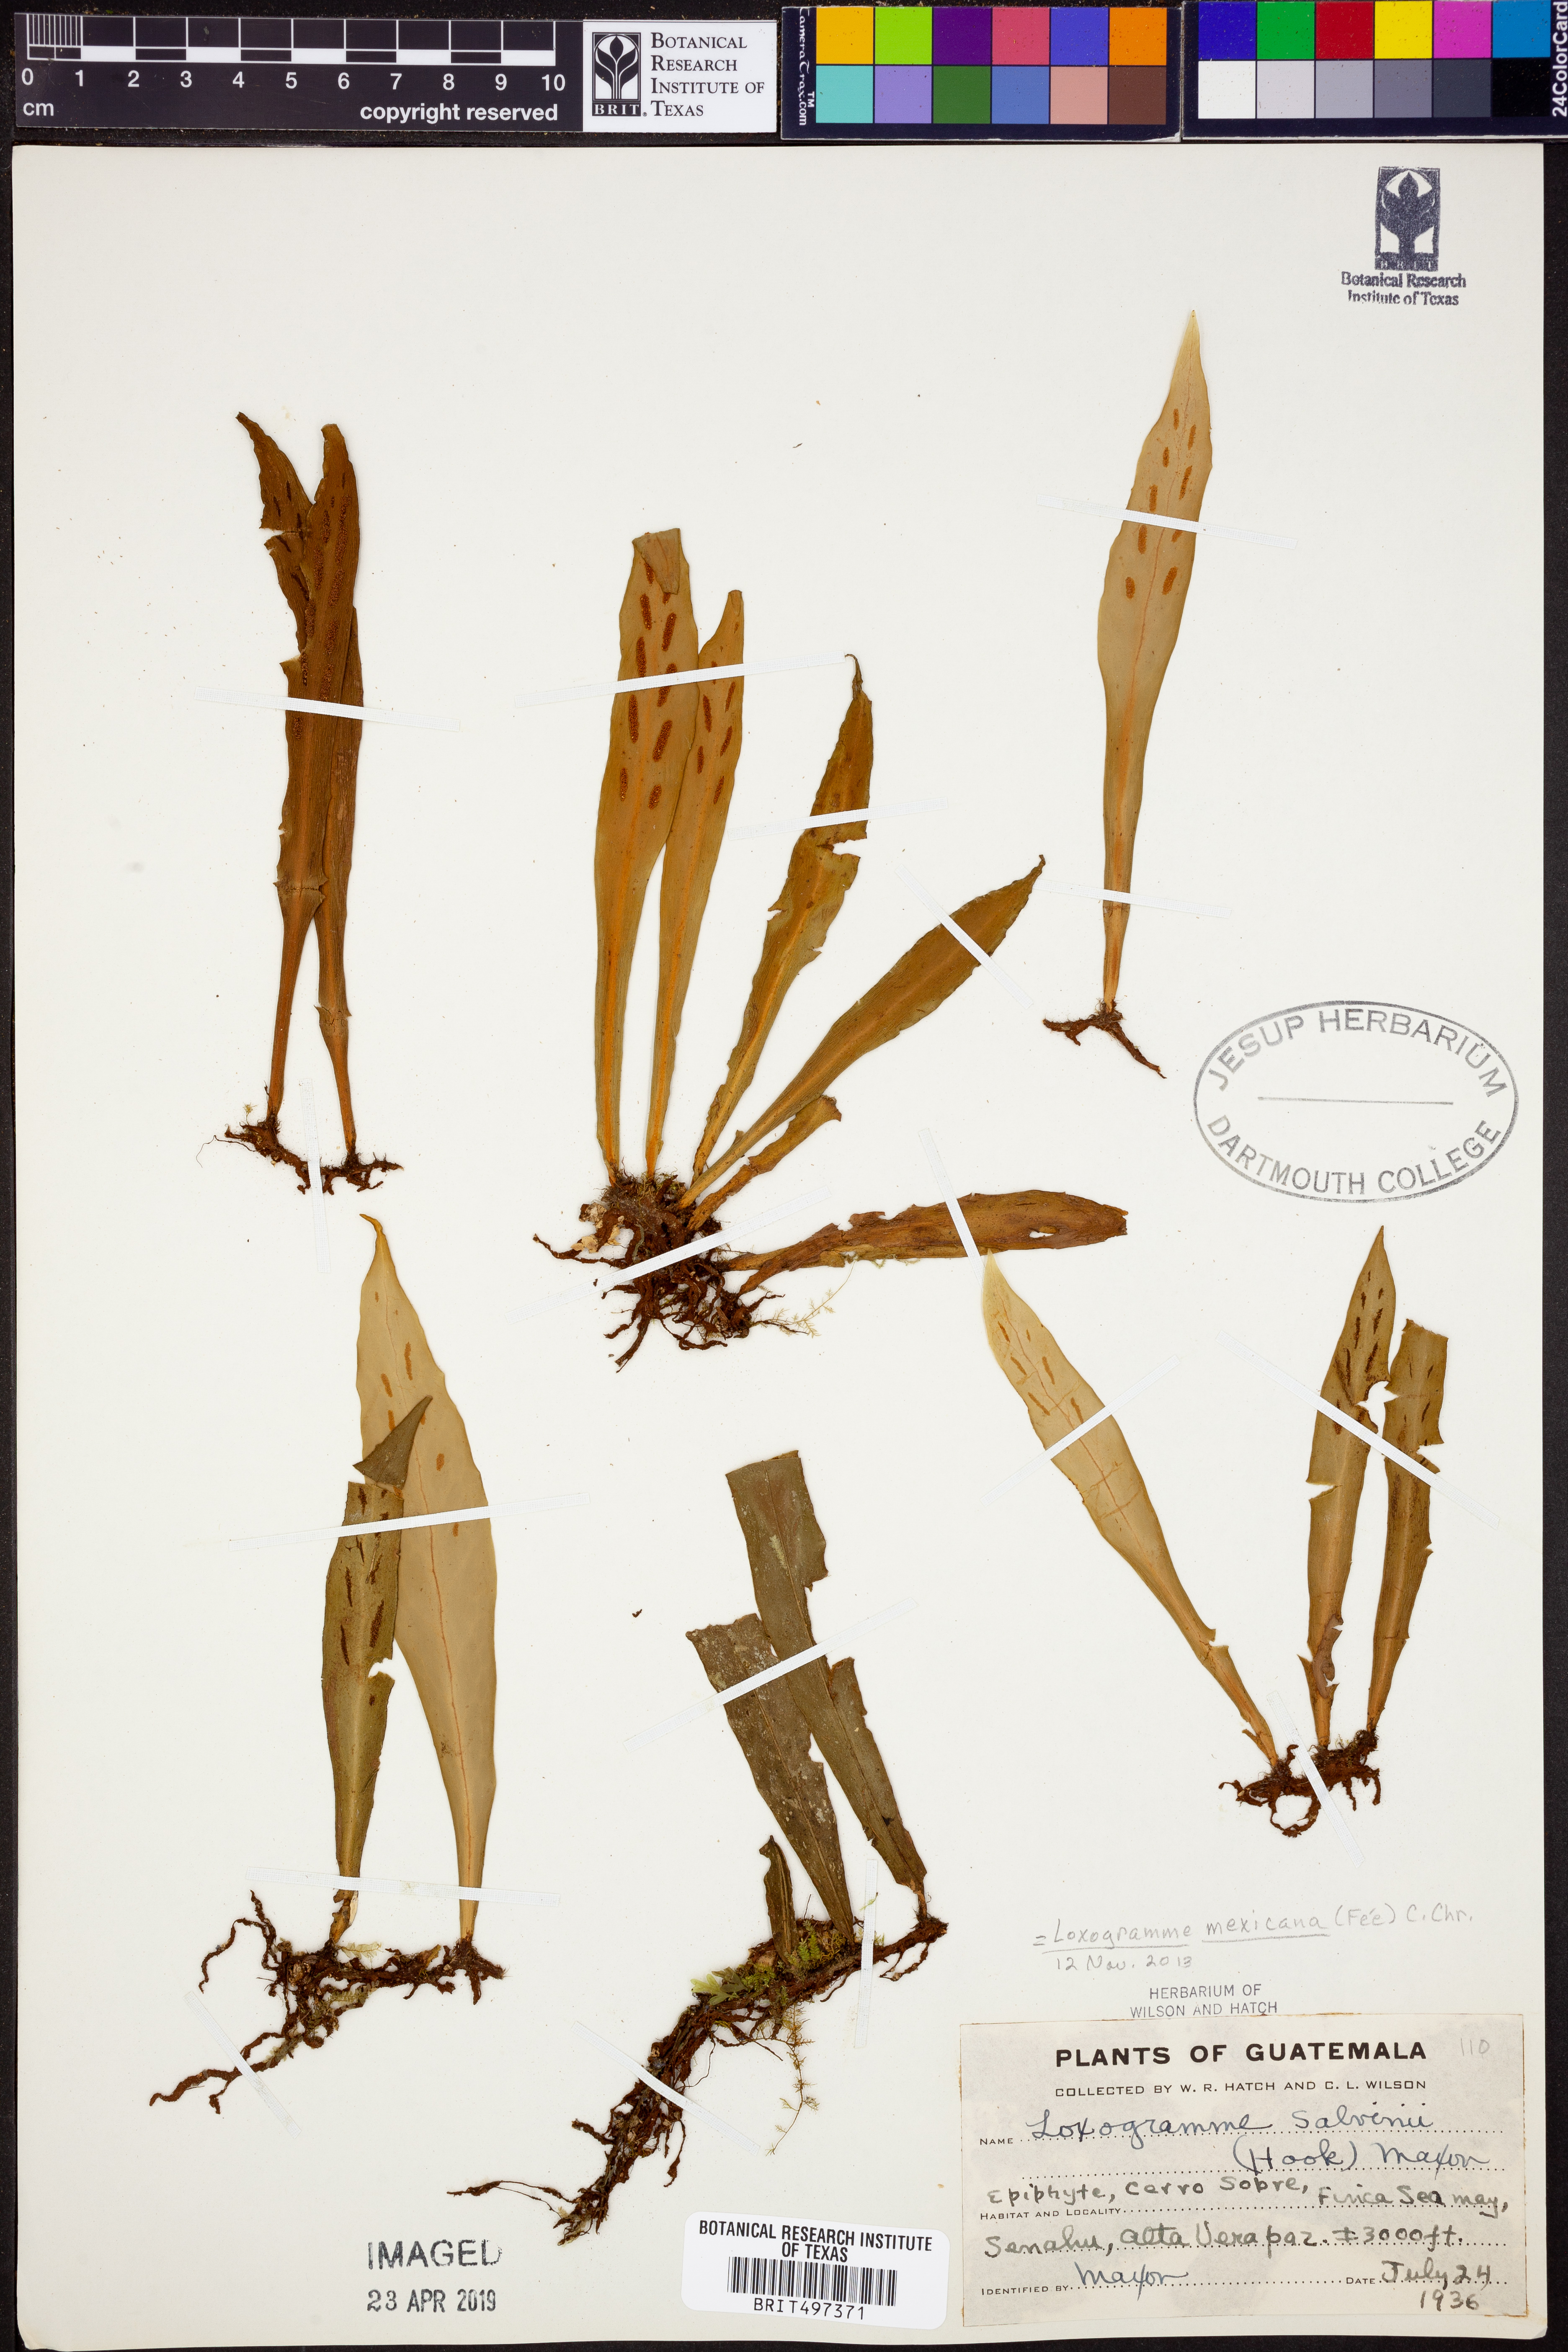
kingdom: Plantae
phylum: Tracheophyta
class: Polypodiopsida
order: Polypodiales
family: Polypodiaceae
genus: Loxogramme
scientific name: Loxogramme mexicana
